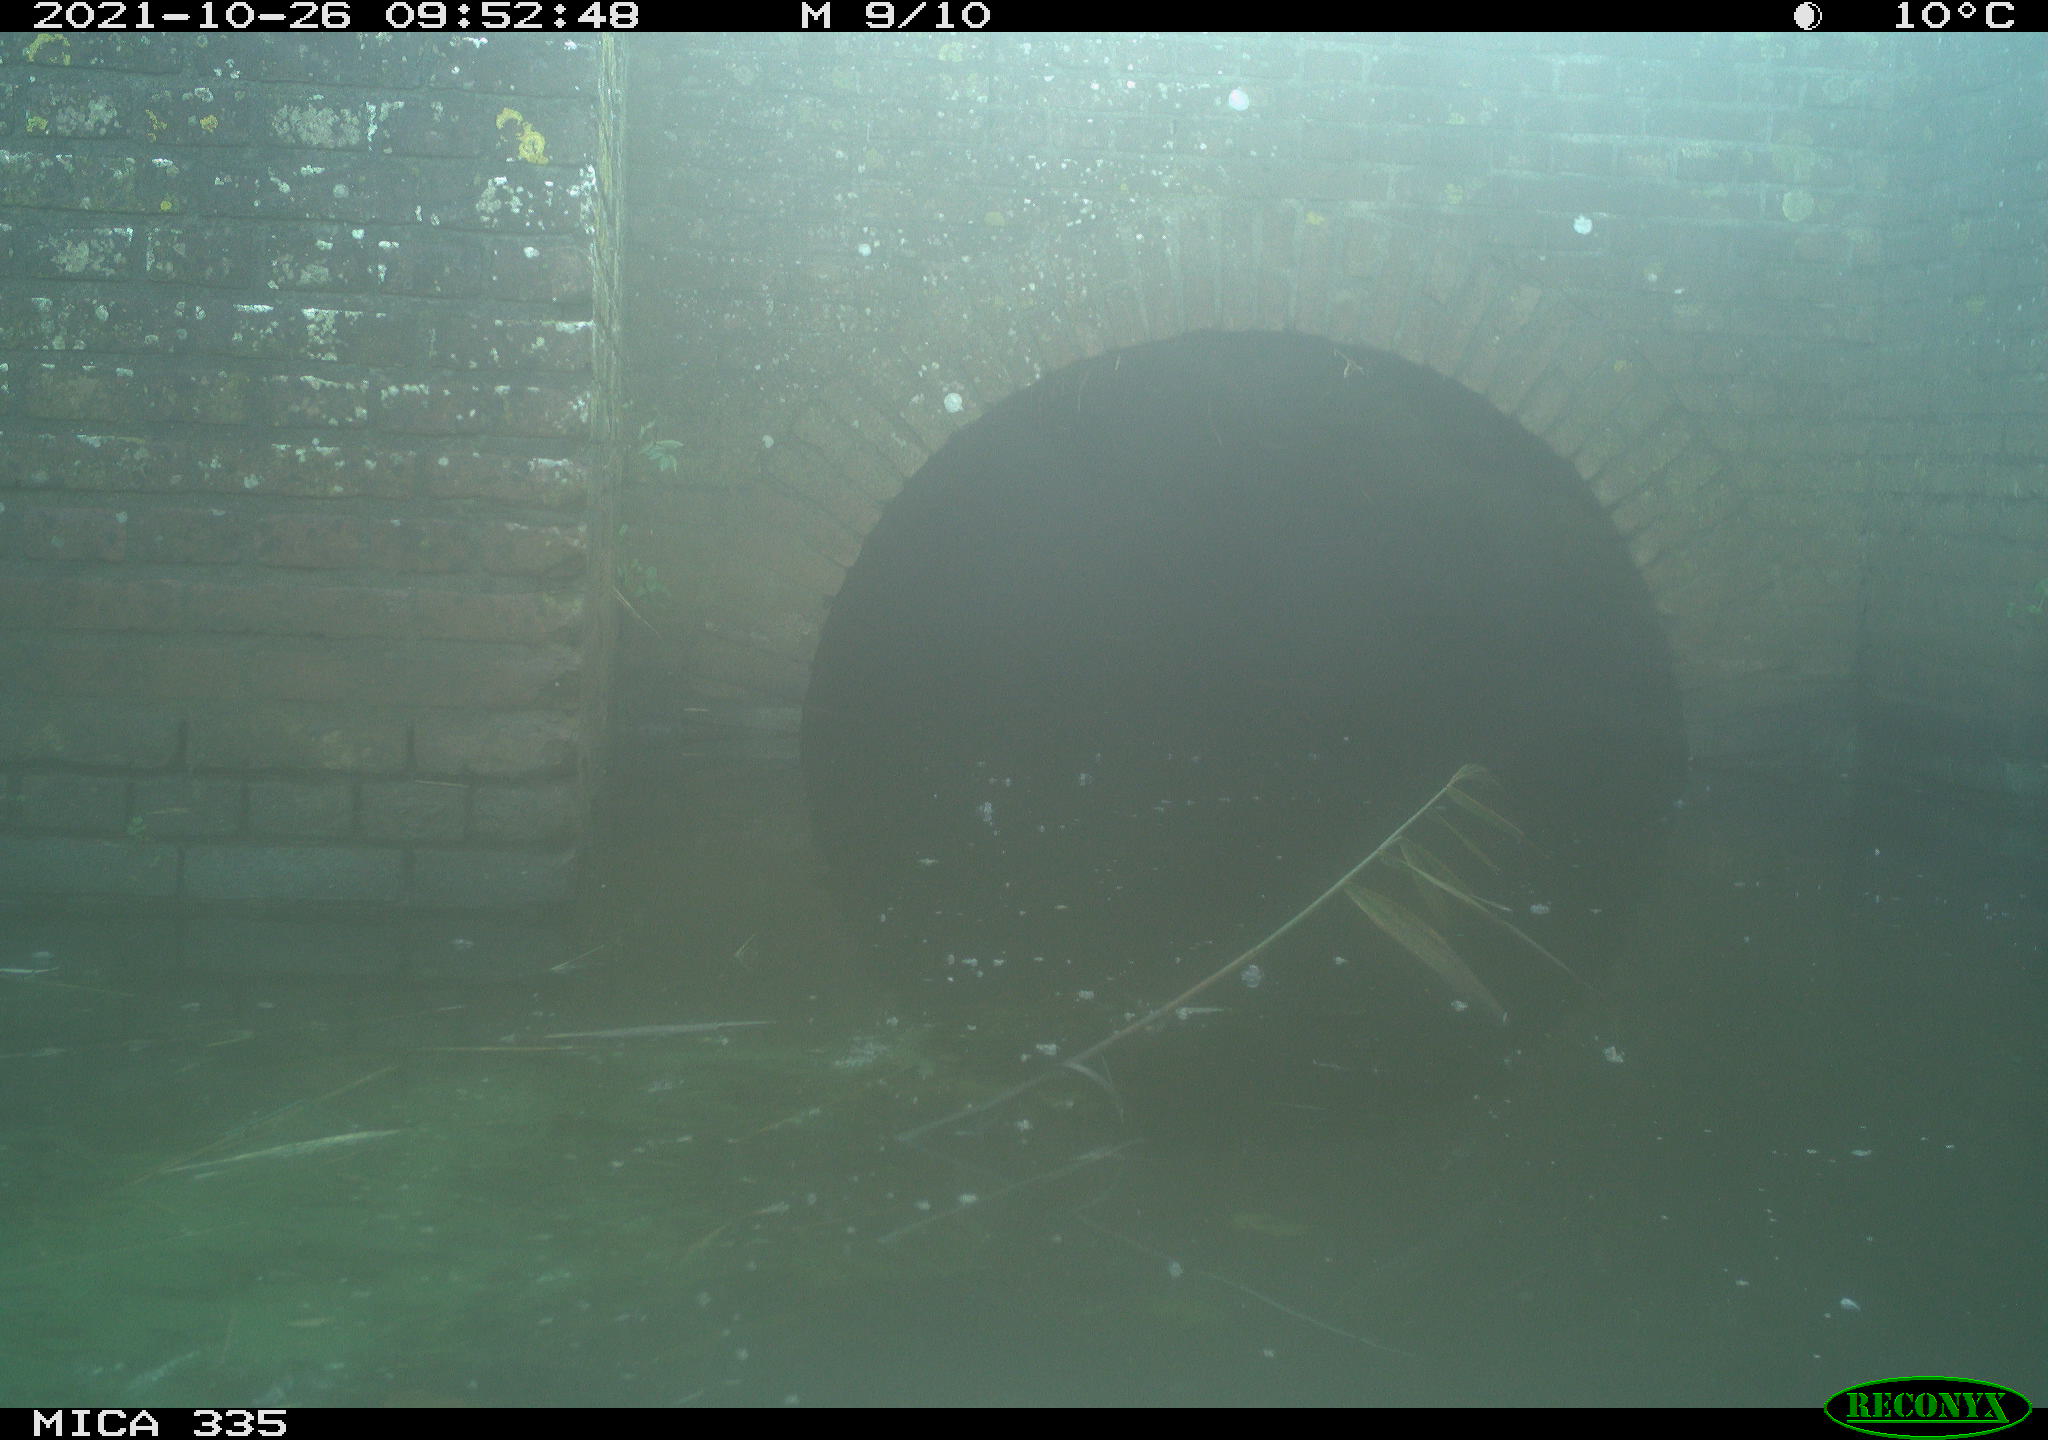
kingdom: Animalia
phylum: Chordata
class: Aves
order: Anseriformes
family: Anatidae
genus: Anas
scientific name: Anas platyrhynchos
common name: Mallard
